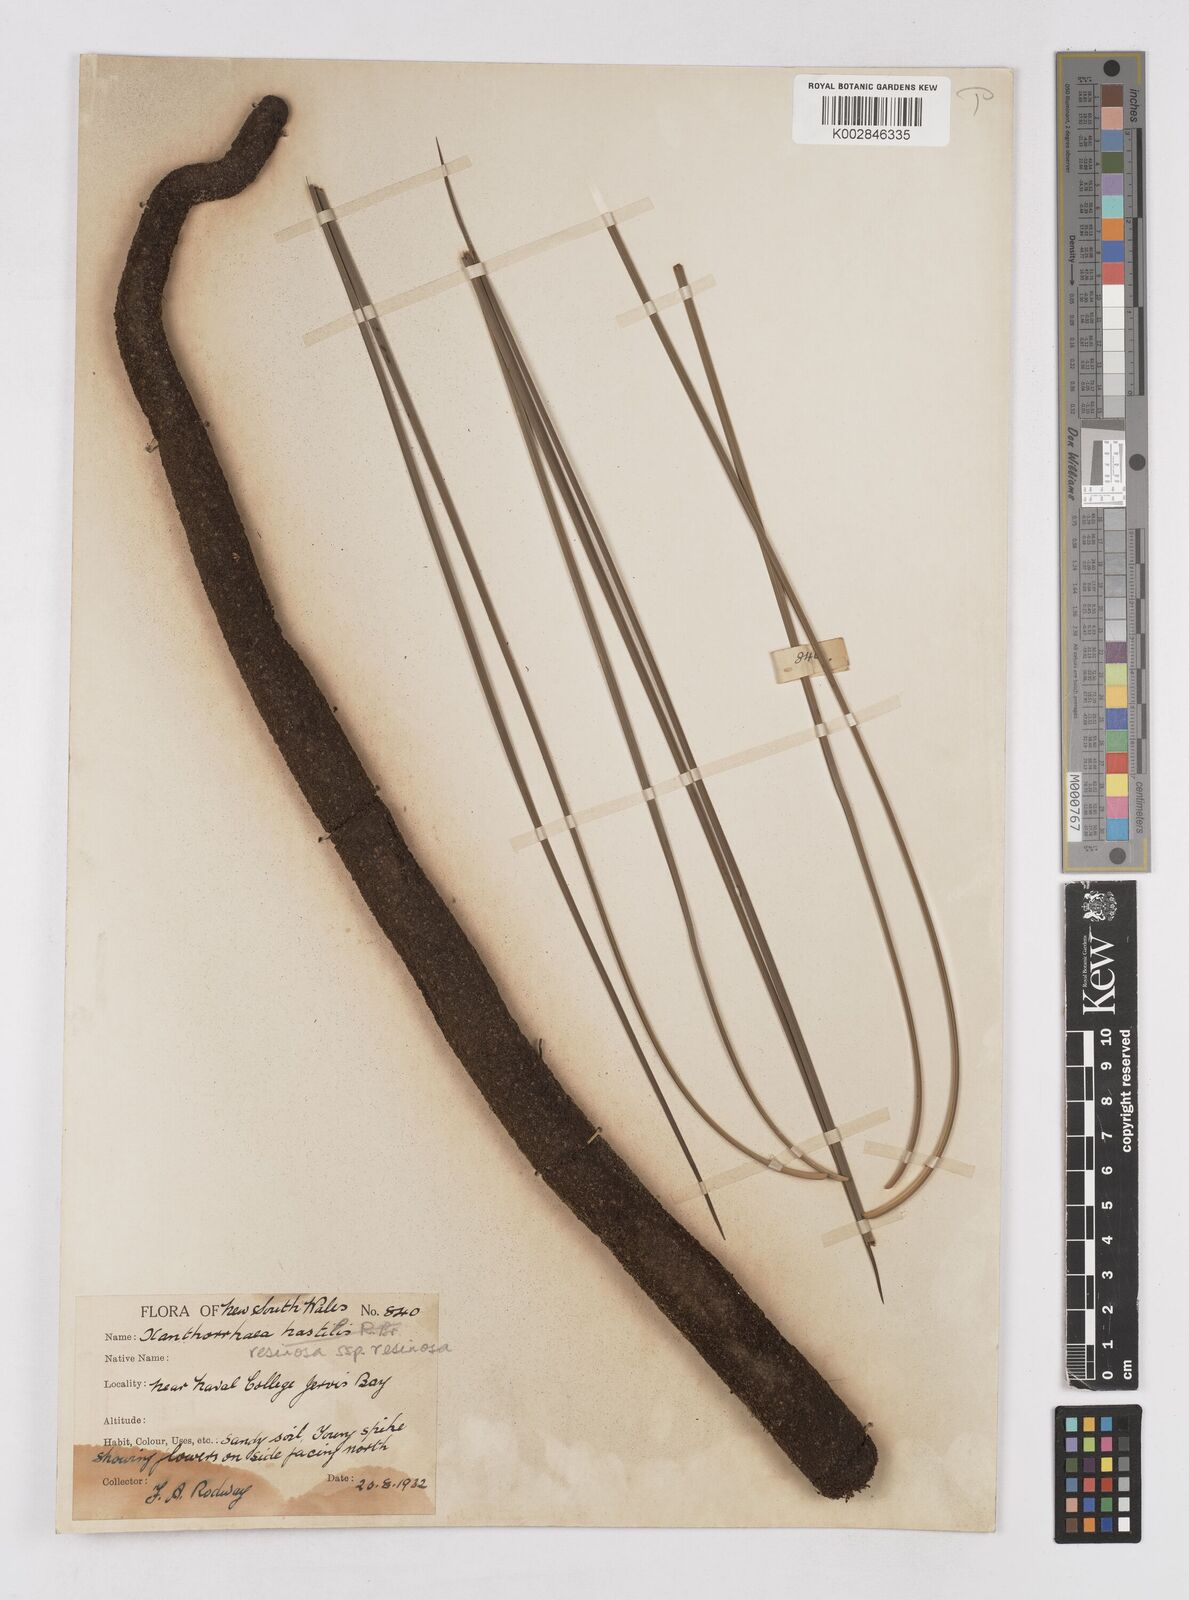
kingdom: Plantae
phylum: Tracheophyta
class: Liliopsida
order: Asparagales
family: Asphodelaceae
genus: Xanthorrhoea
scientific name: Xanthorrhoea resinosa
